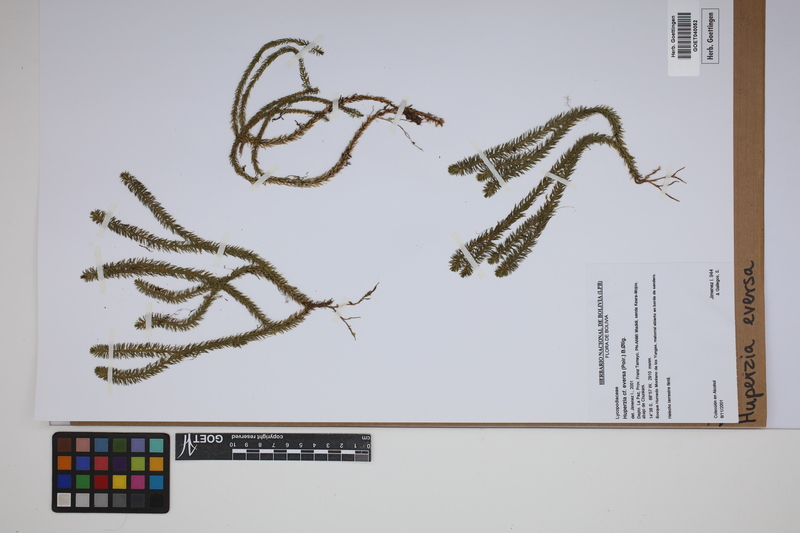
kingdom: Plantae
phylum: Tracheophyta
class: Lycopodiopsida
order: Lycopodiales
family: Lycopodiaceae
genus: Phlegmariurus
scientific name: Phlegmariurus eversus
